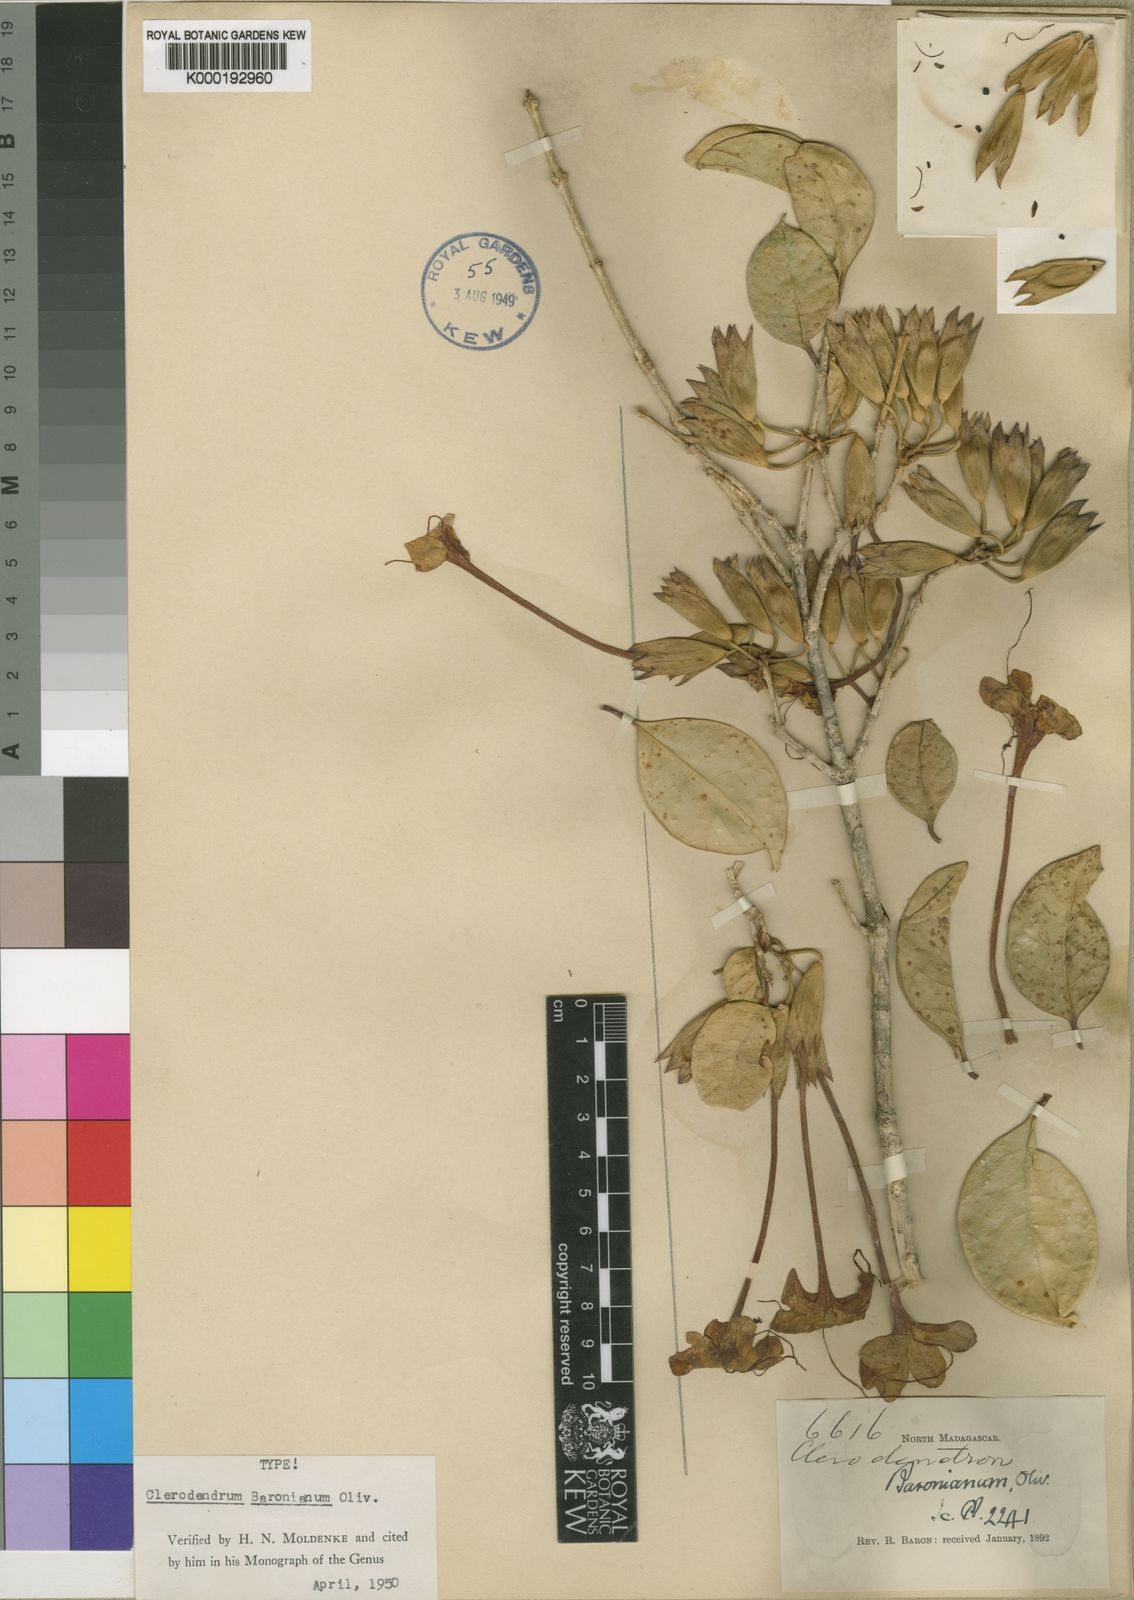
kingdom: Plantae
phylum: Tracheophyta
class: Magnoliopsida
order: Lamiales
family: Lamiaceae
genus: Clerodendrum
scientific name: Clerodendrum baronianum
